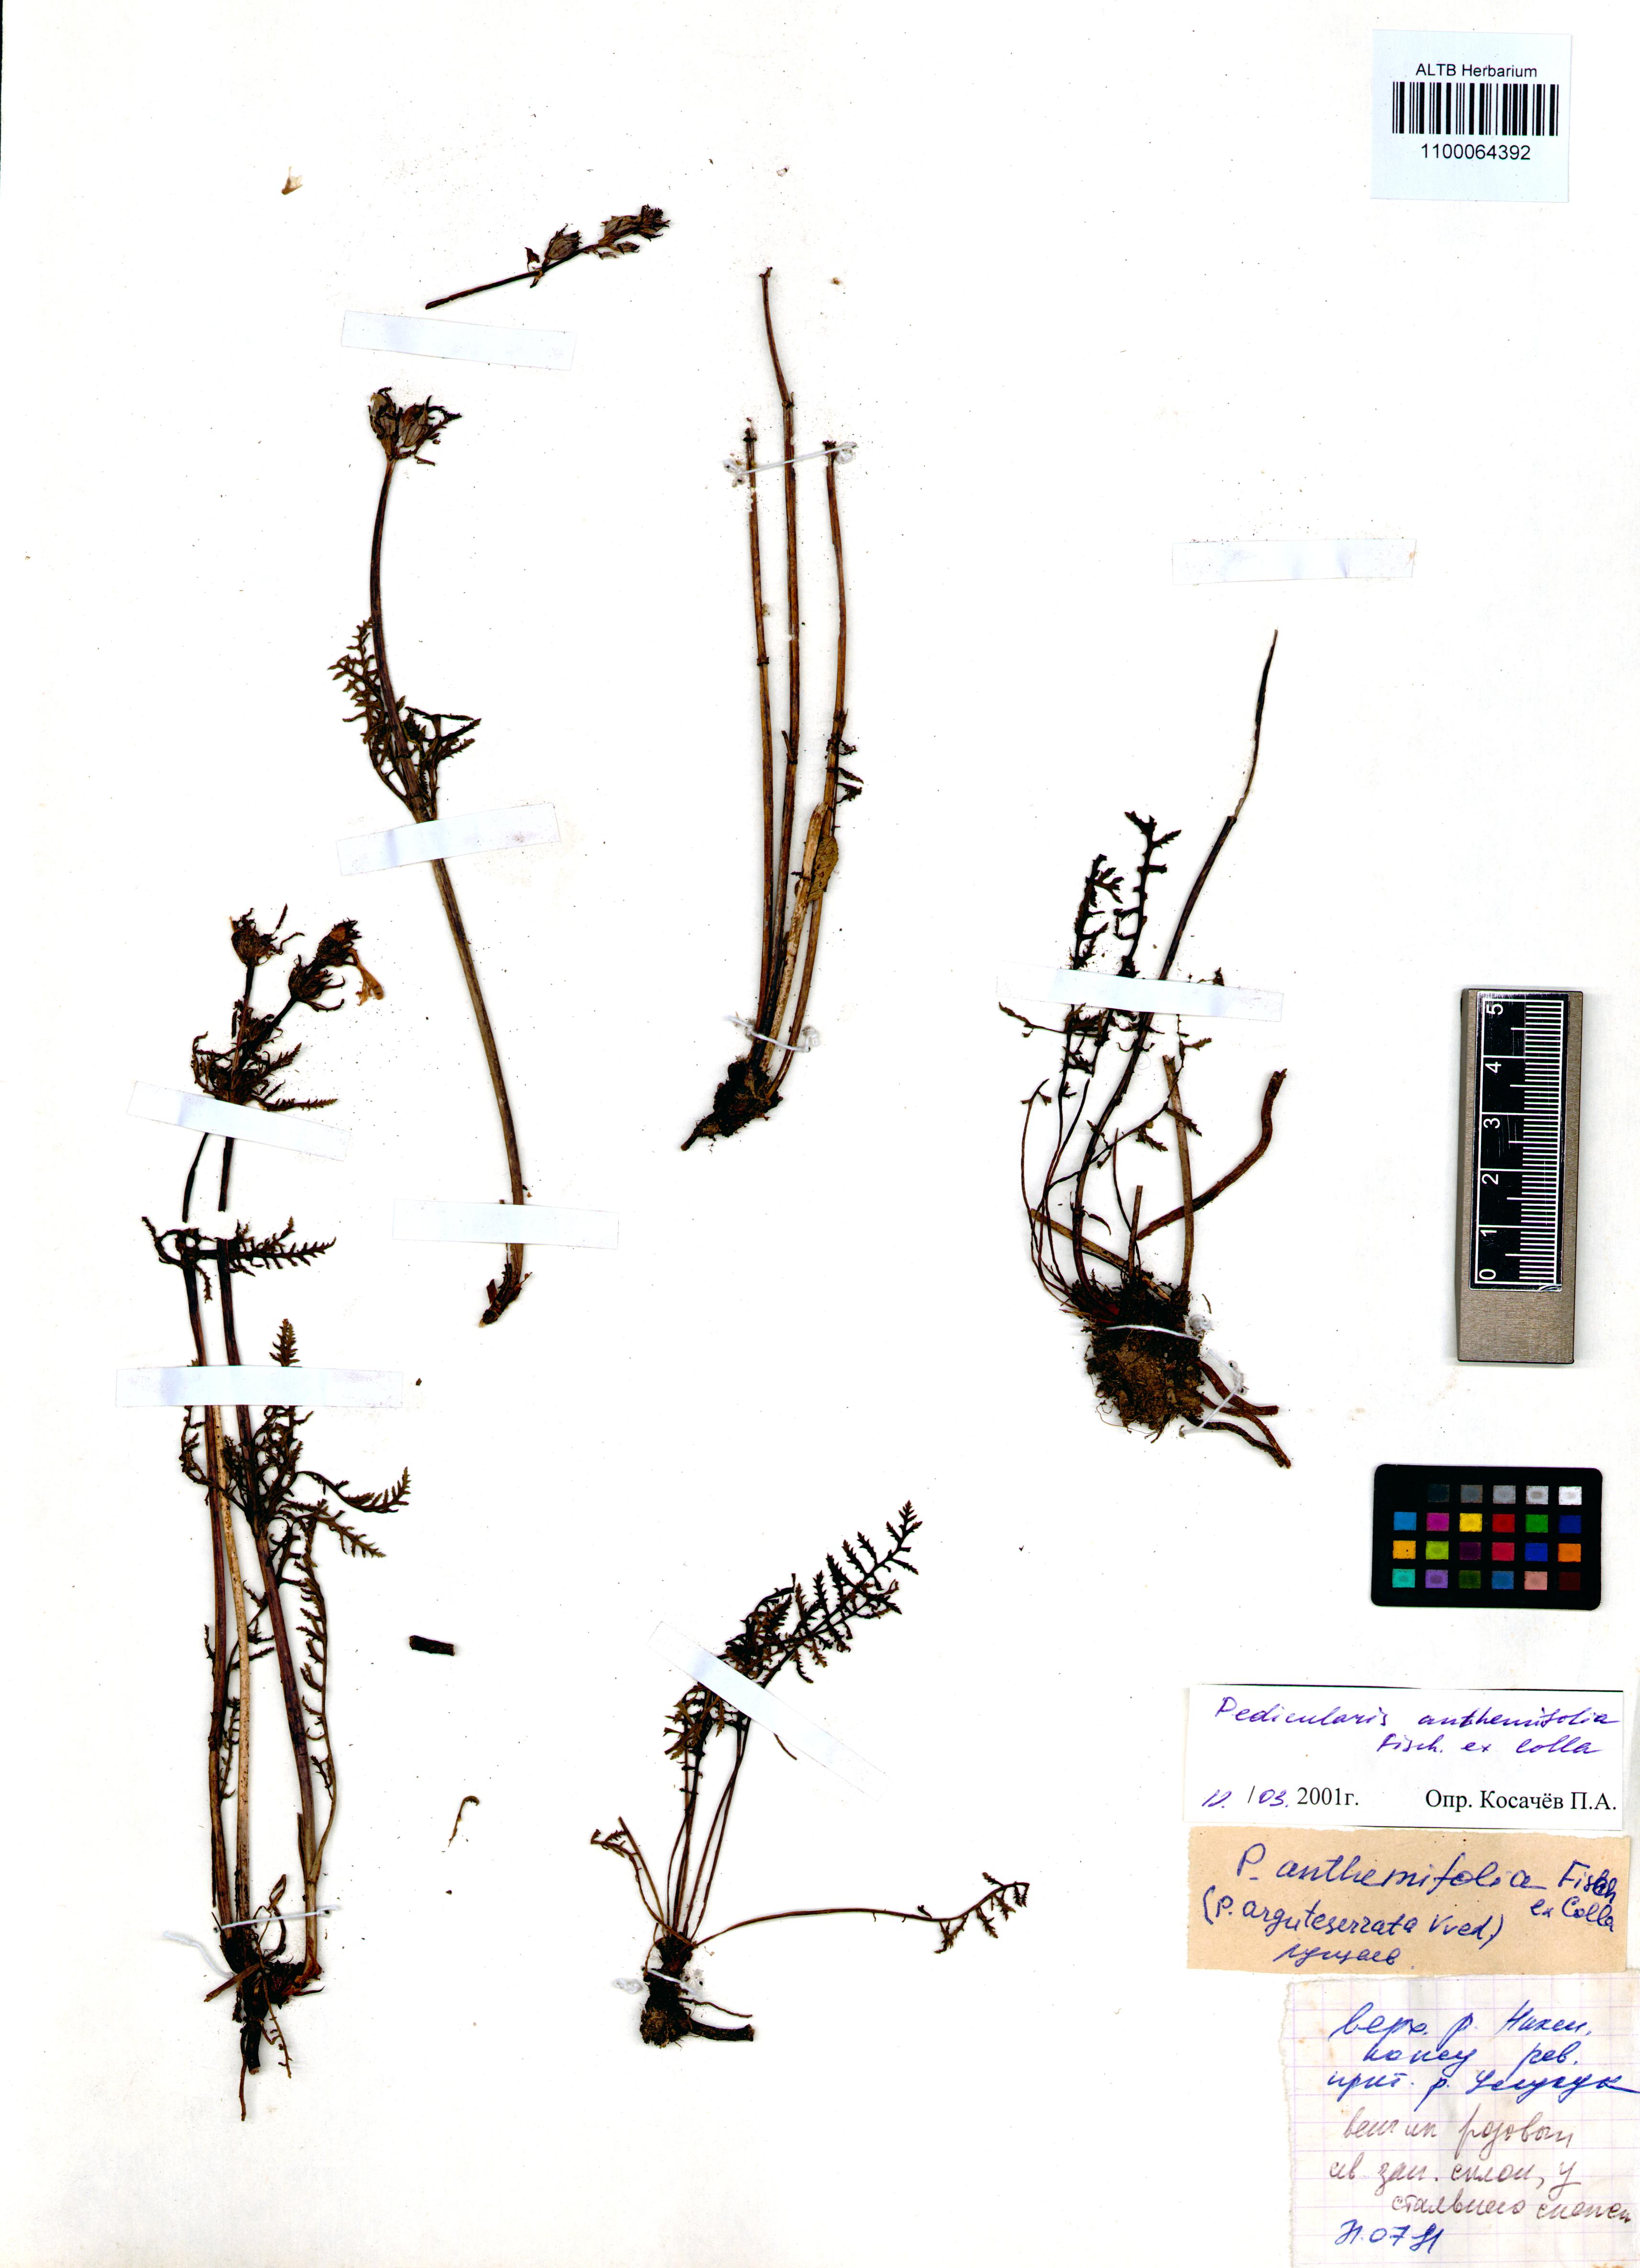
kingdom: Plantae
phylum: Tracheophyta
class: Magnoliopsida
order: Lamiales
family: Orobanchaceae
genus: Pedicularis
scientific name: Pedicularis anthemifolia
